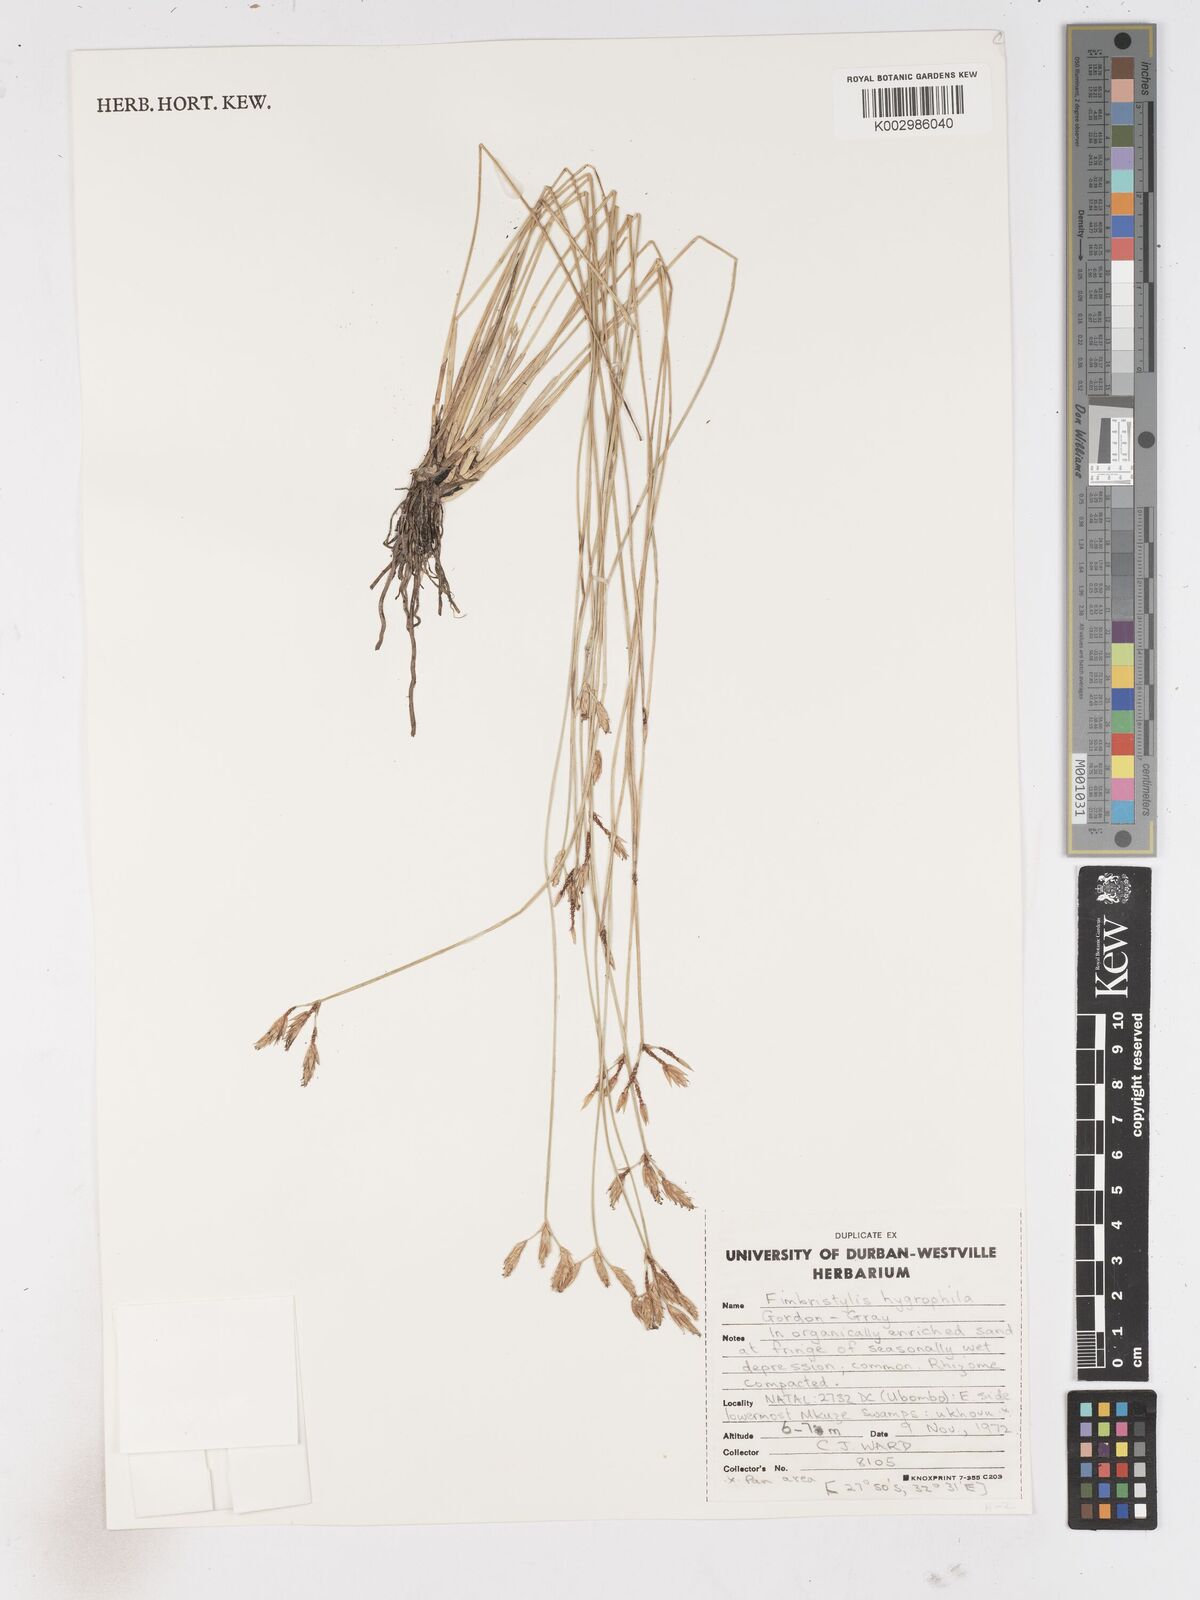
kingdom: Plantae
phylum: Tracheophyta
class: Liliopsida
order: Poales
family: Cyperaceae
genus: Zulustylis
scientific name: Zulustylis hygrophila
